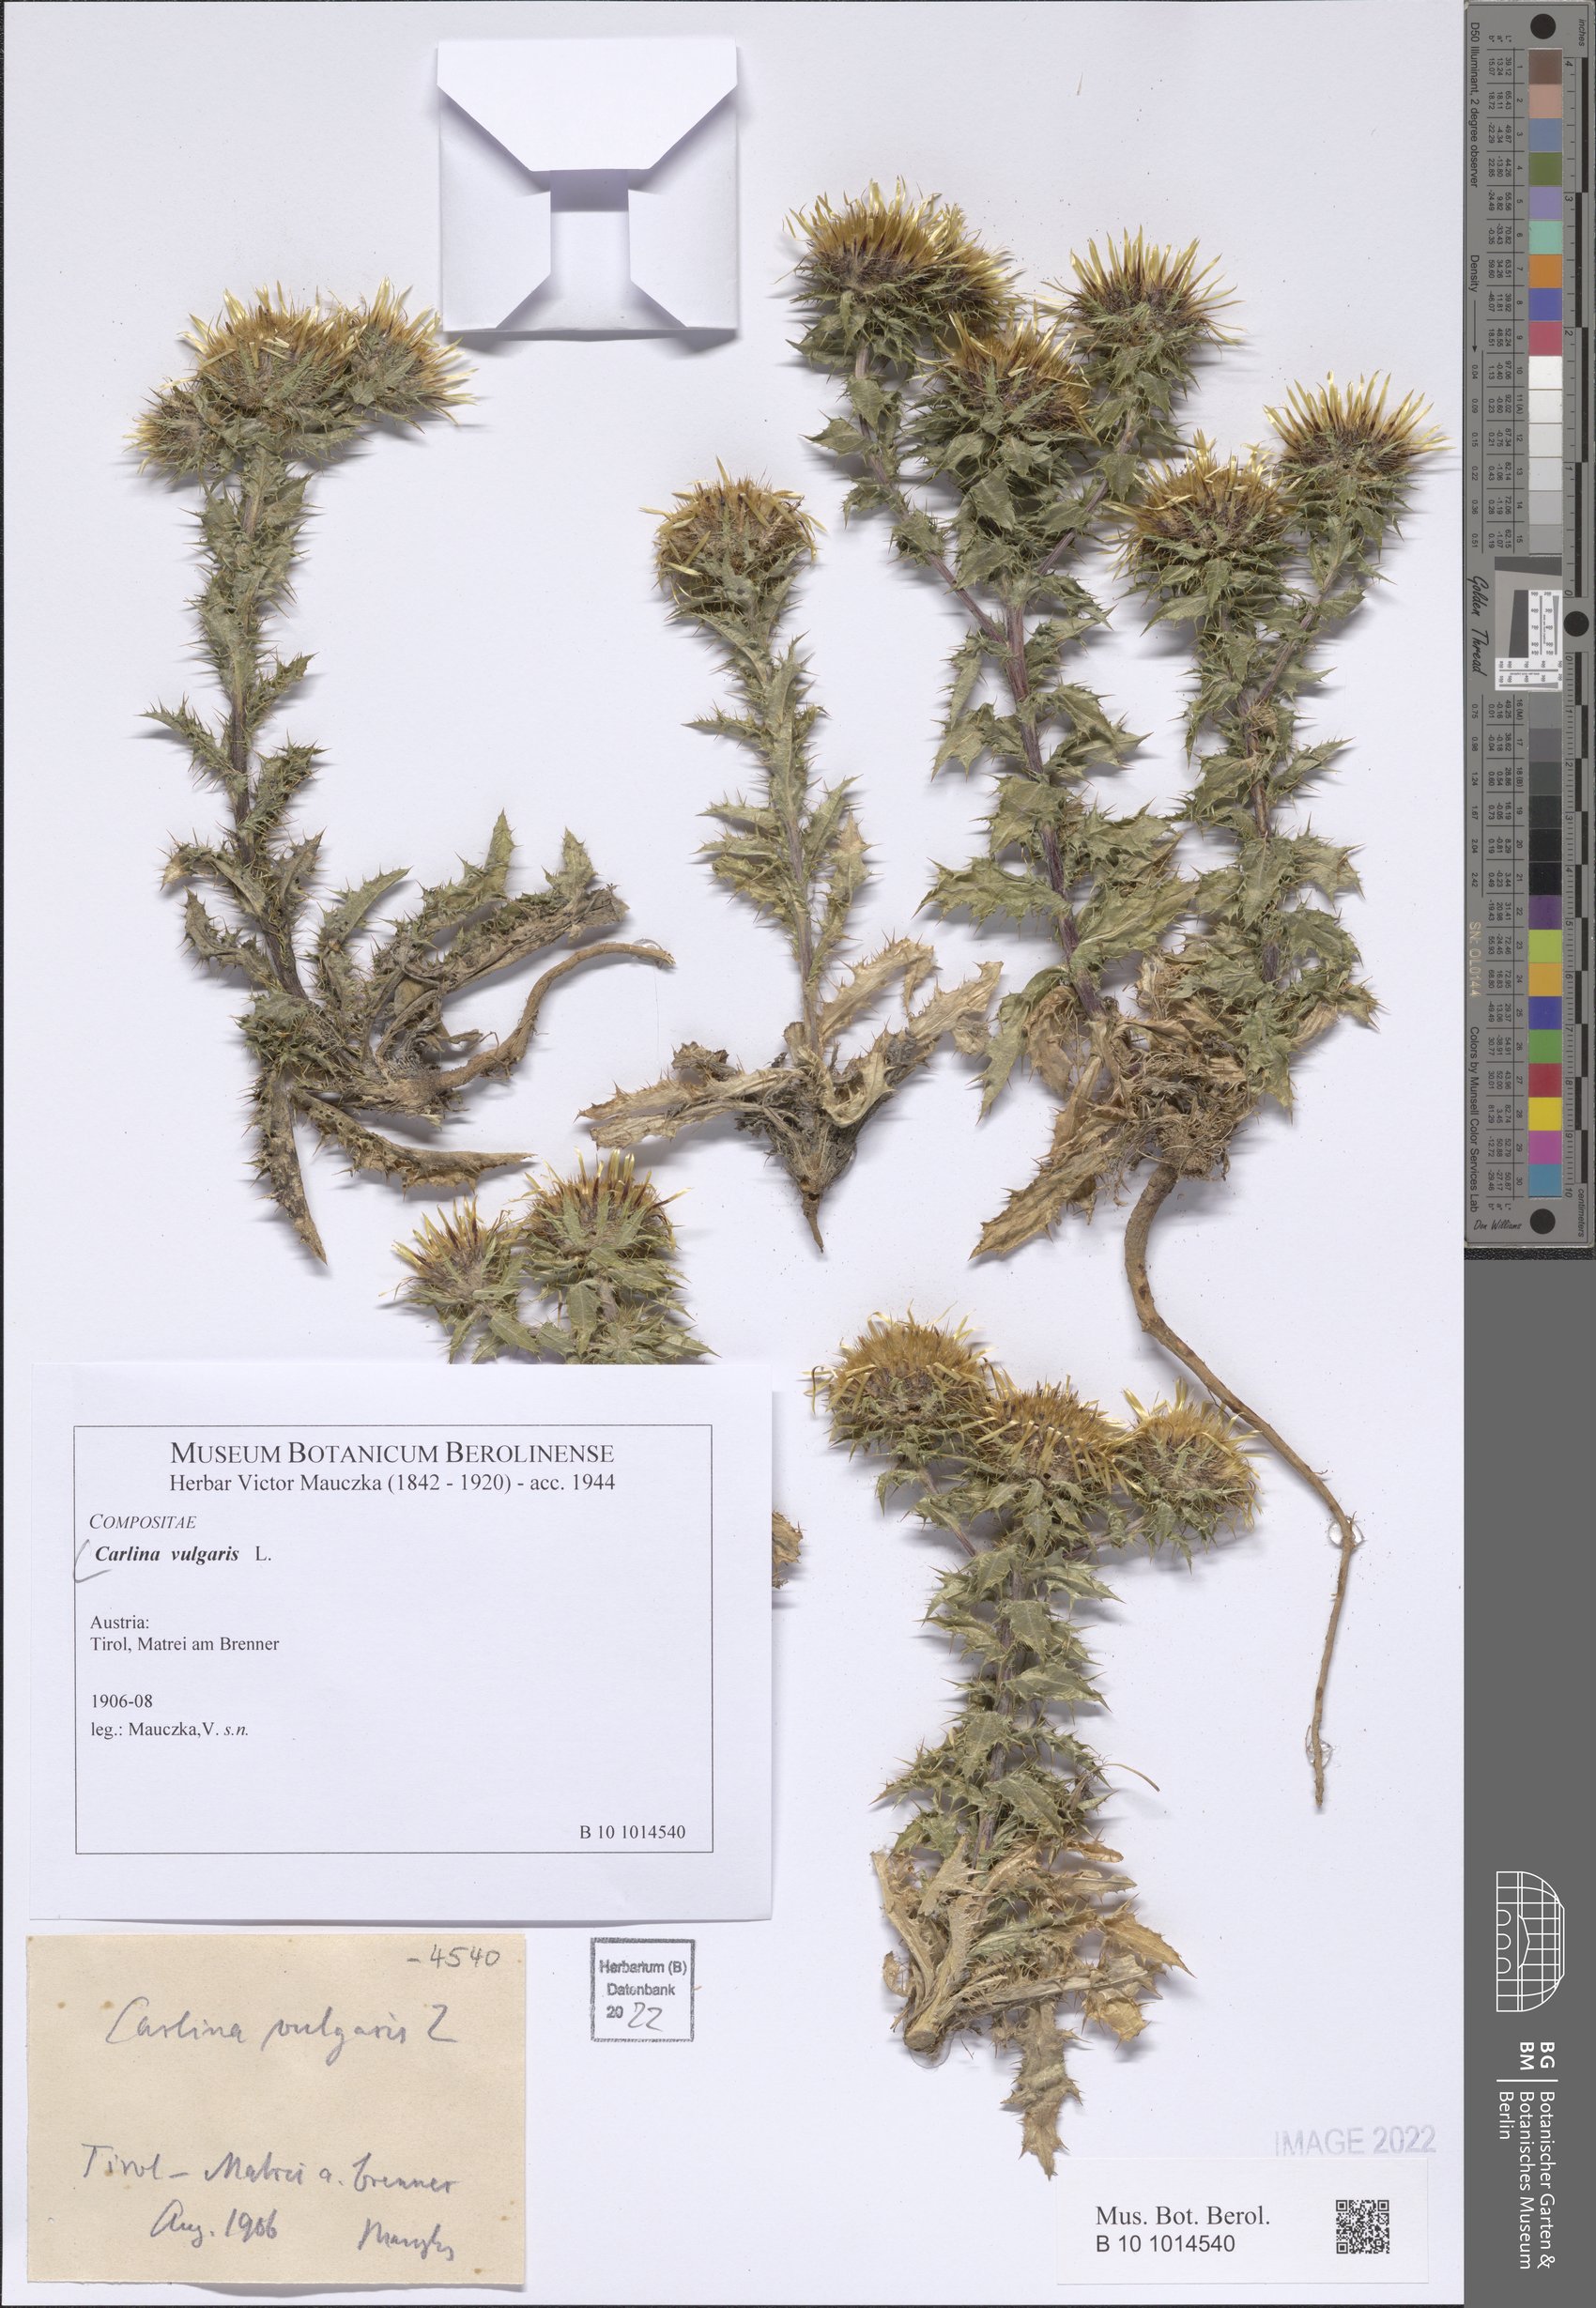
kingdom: Plantae
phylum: Tracheophyta
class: Magnoliopsida
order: Asterales
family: Asteraceae
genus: Carlina
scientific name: Carlina vulgaris
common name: Carline thistle
